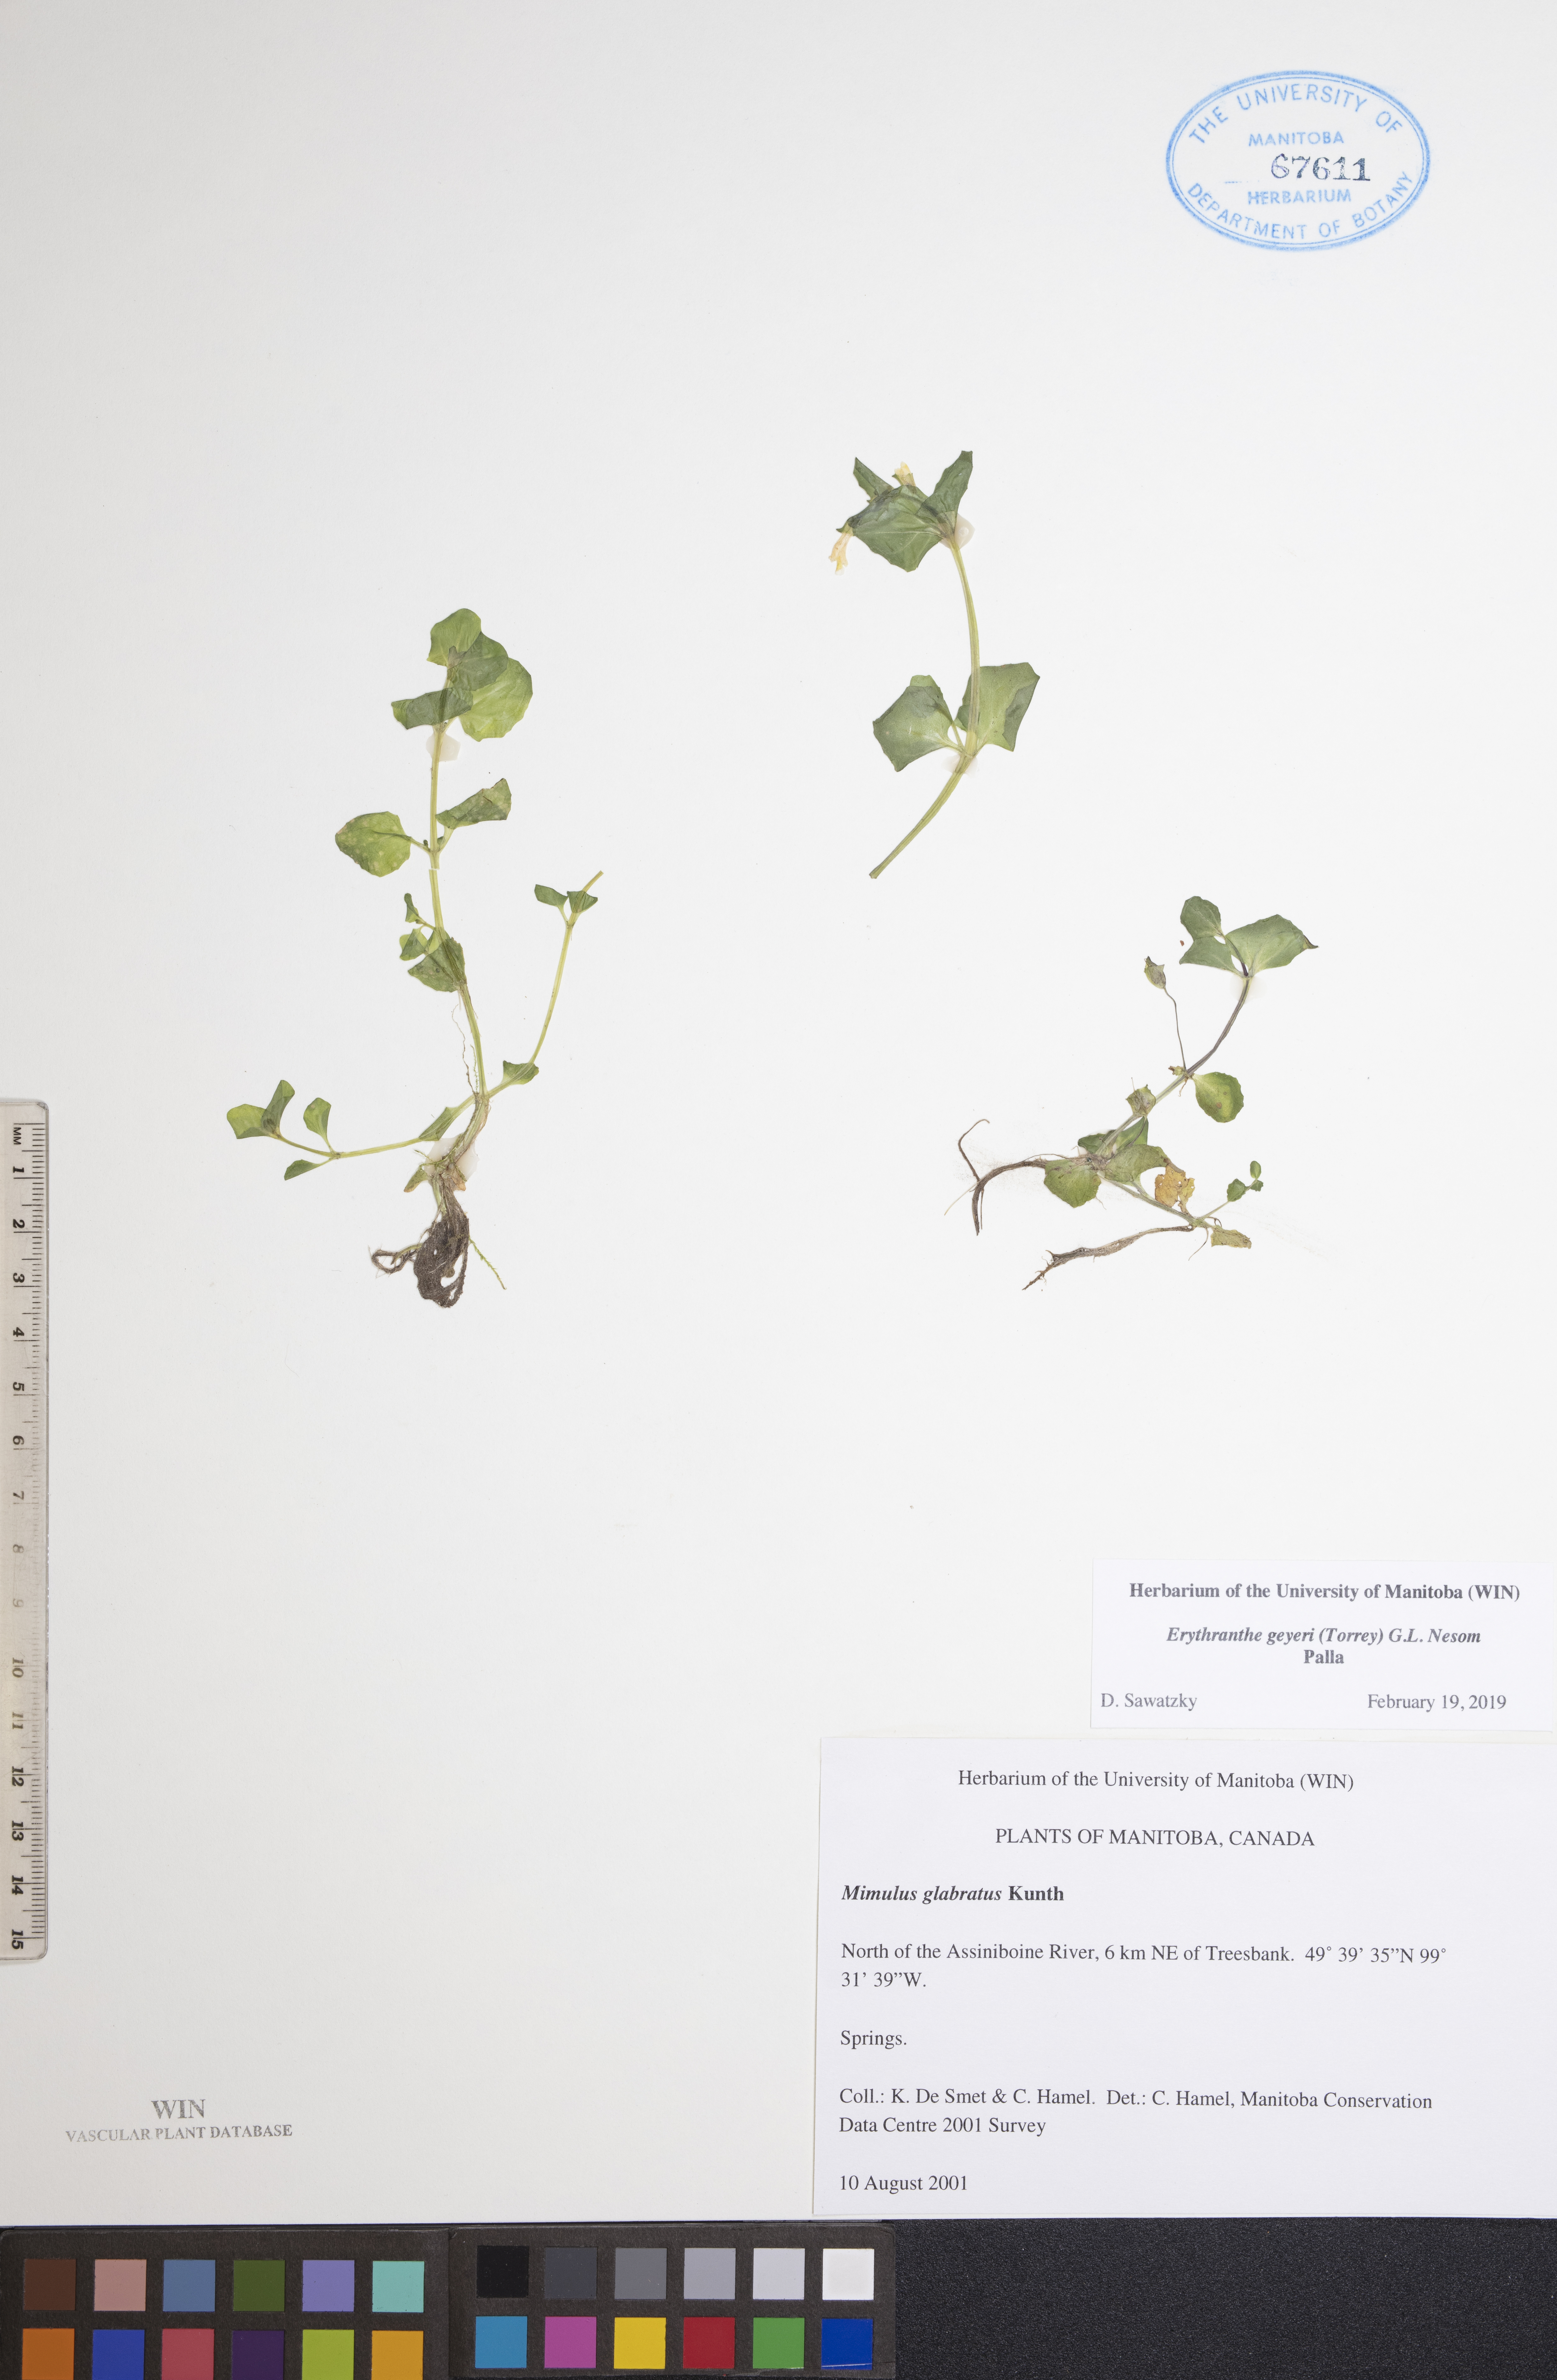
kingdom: Plantae
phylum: Tracheophyta
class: Magnoliopsida
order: Lamiales
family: Phrymaceae
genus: Erythranthe
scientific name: Erythranthe geyeri
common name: Geyer's monkeyflower
